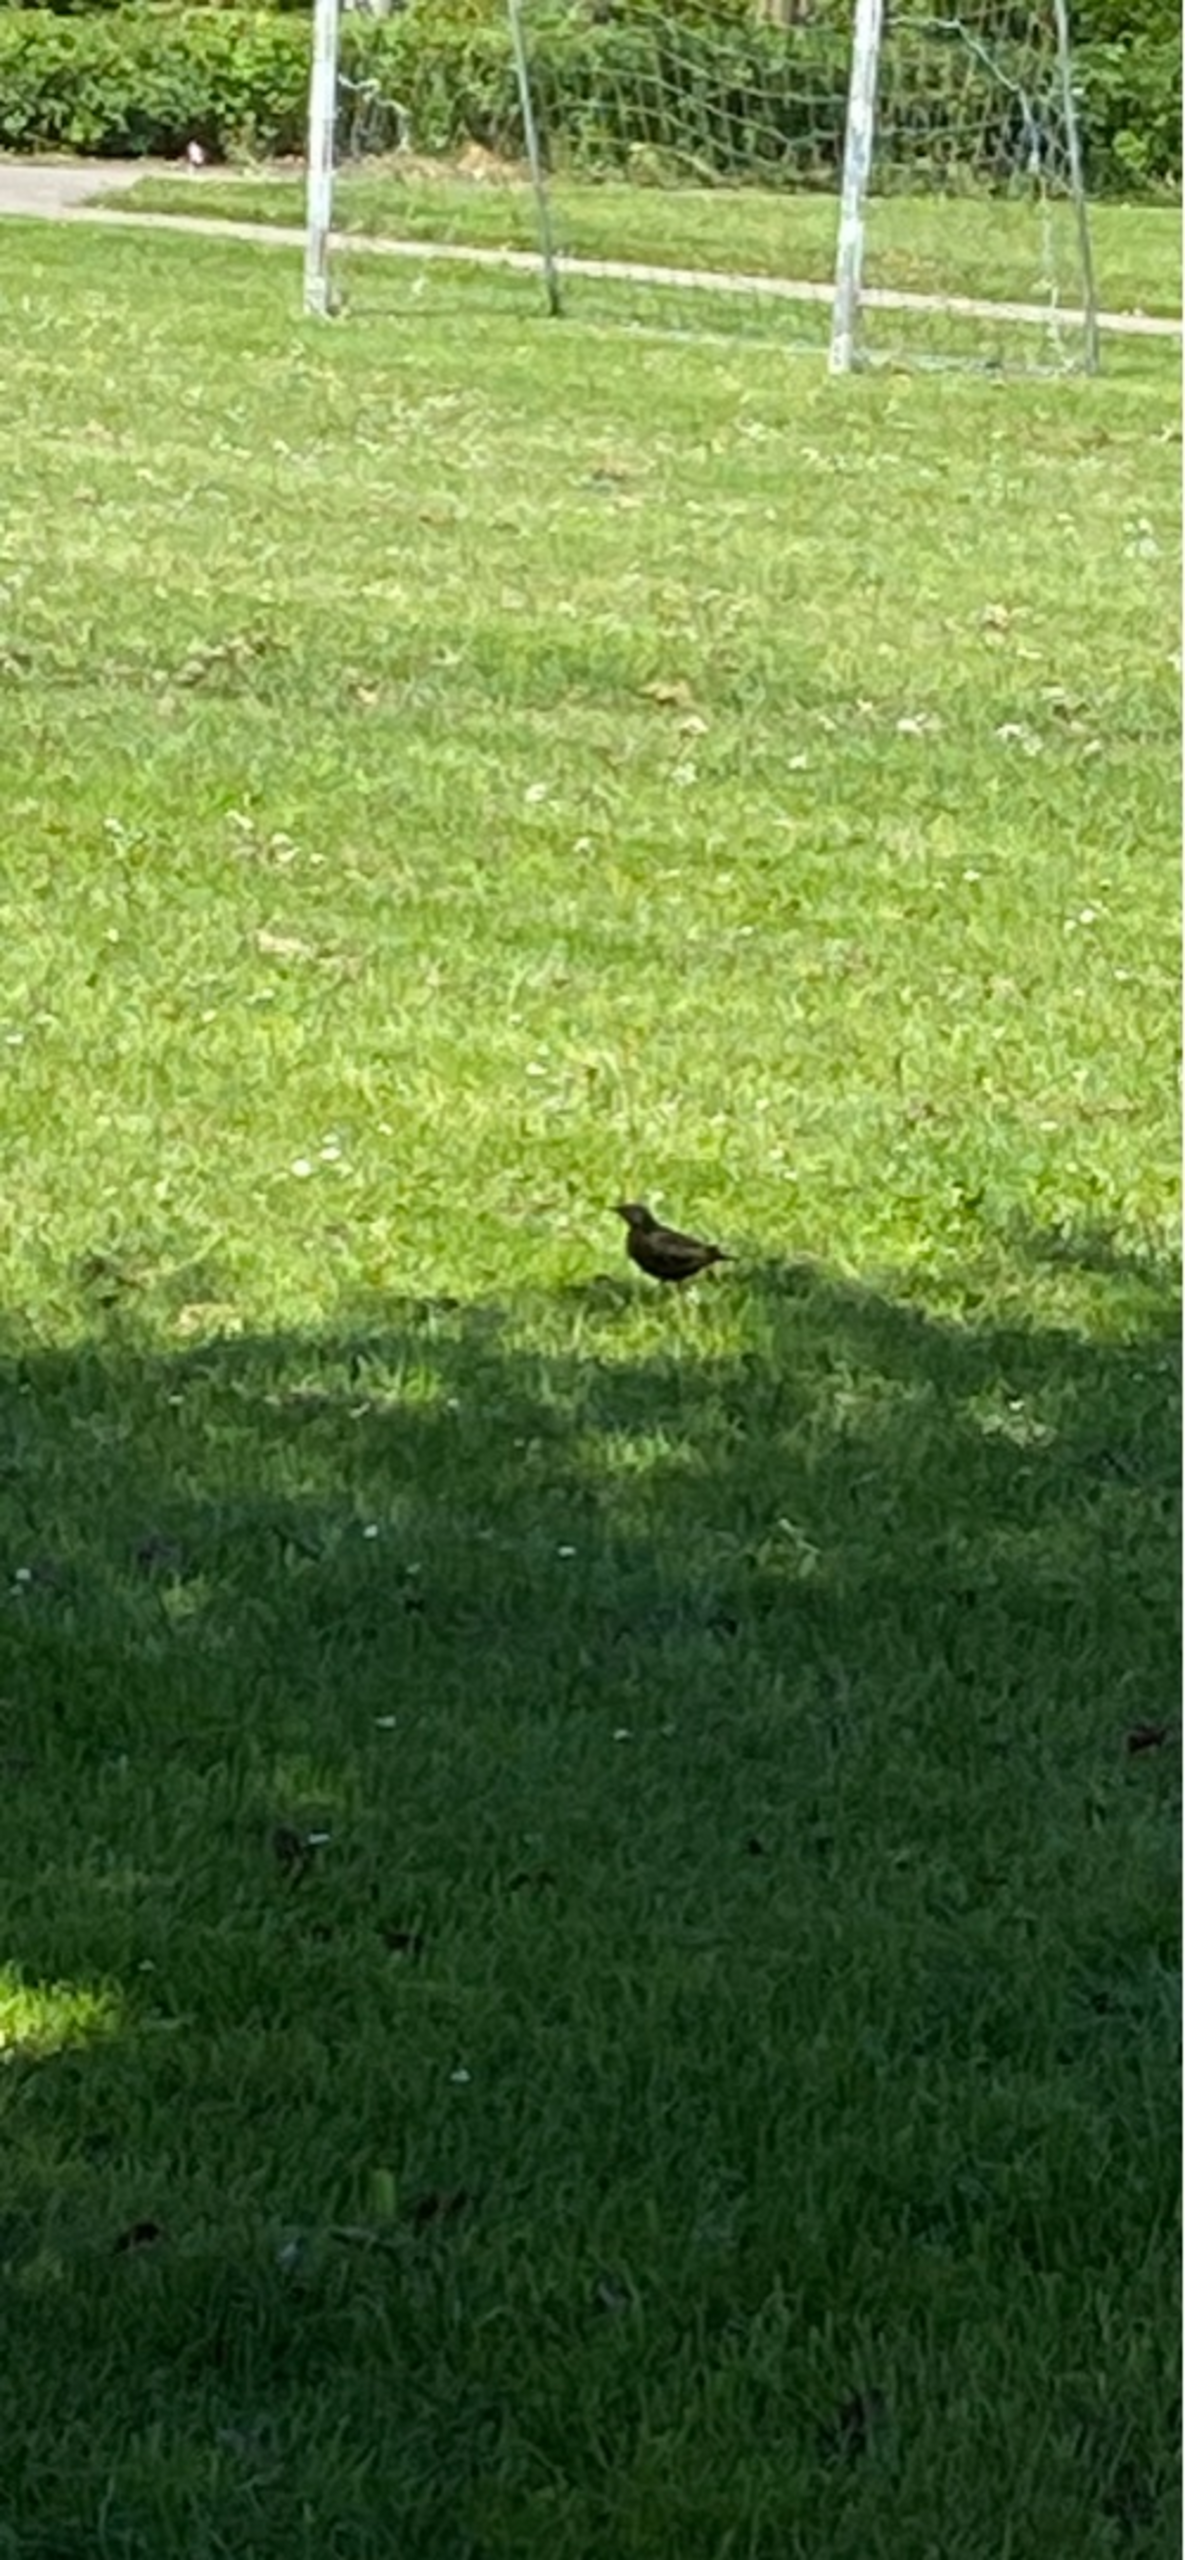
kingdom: Animalia
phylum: Chordata
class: Aves
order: Passeriformes
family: Sturnidae
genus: Sturnus
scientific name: Sturnus vulgaris
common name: Stær
